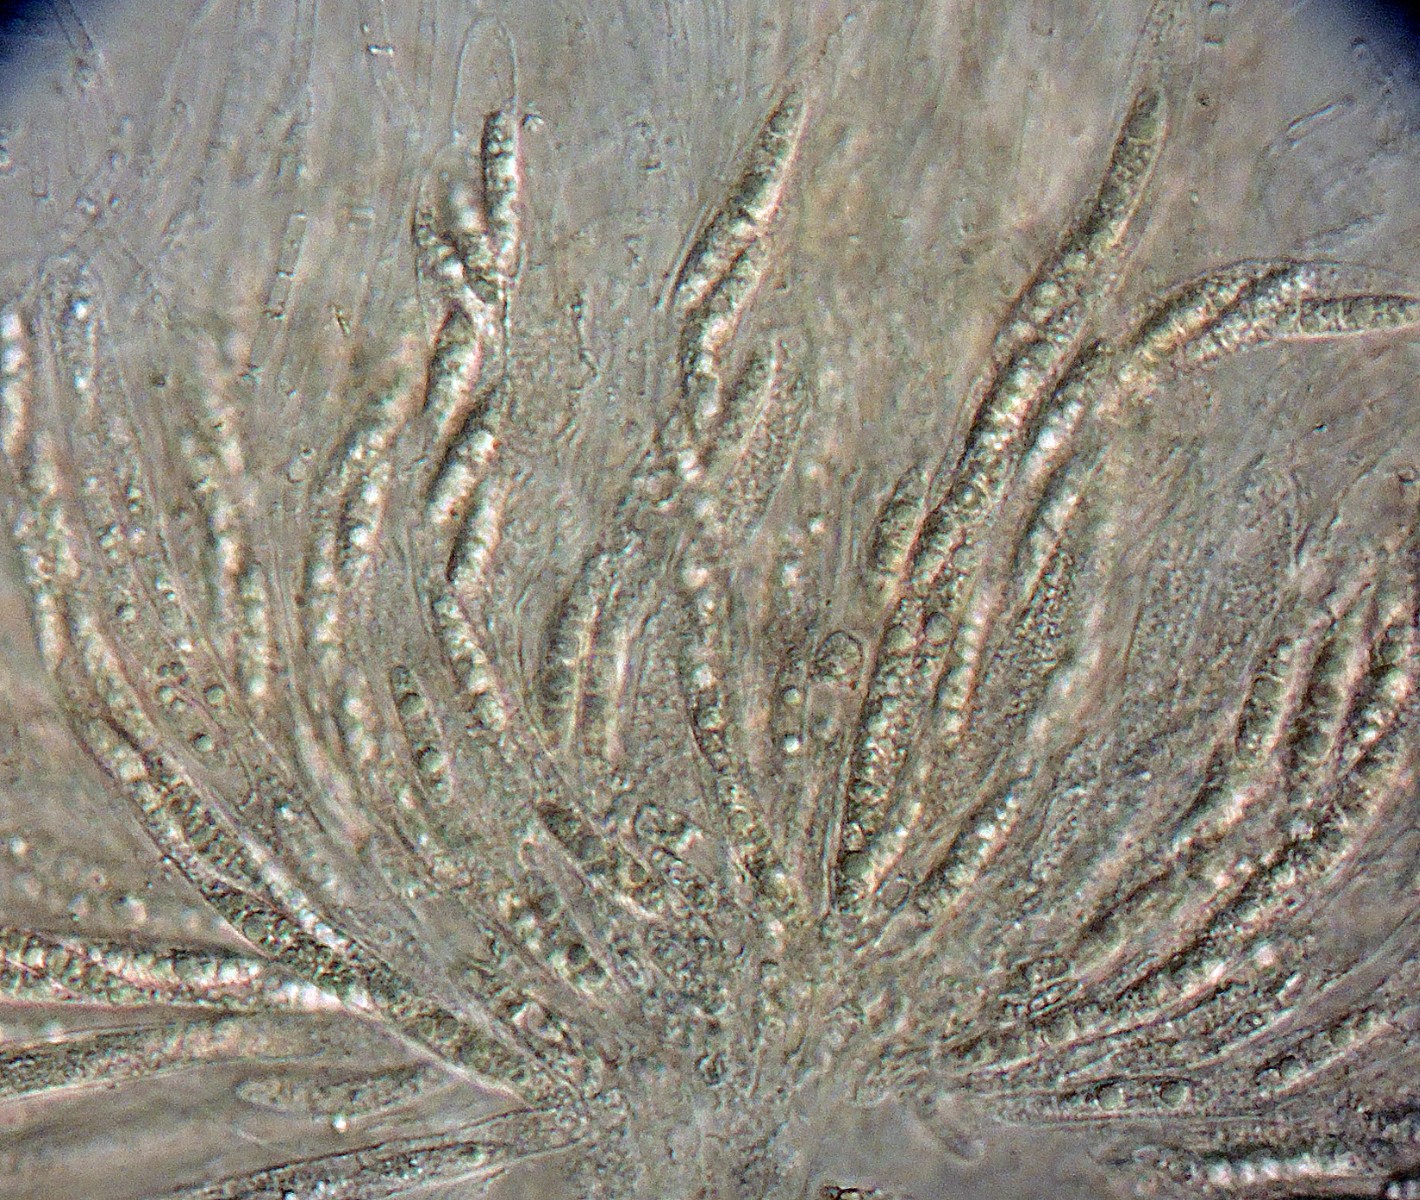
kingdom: Fungi
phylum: Ascomycota
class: Sordariomycetes
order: Sordariales
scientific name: Sordariales
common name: kernesvampordenen
